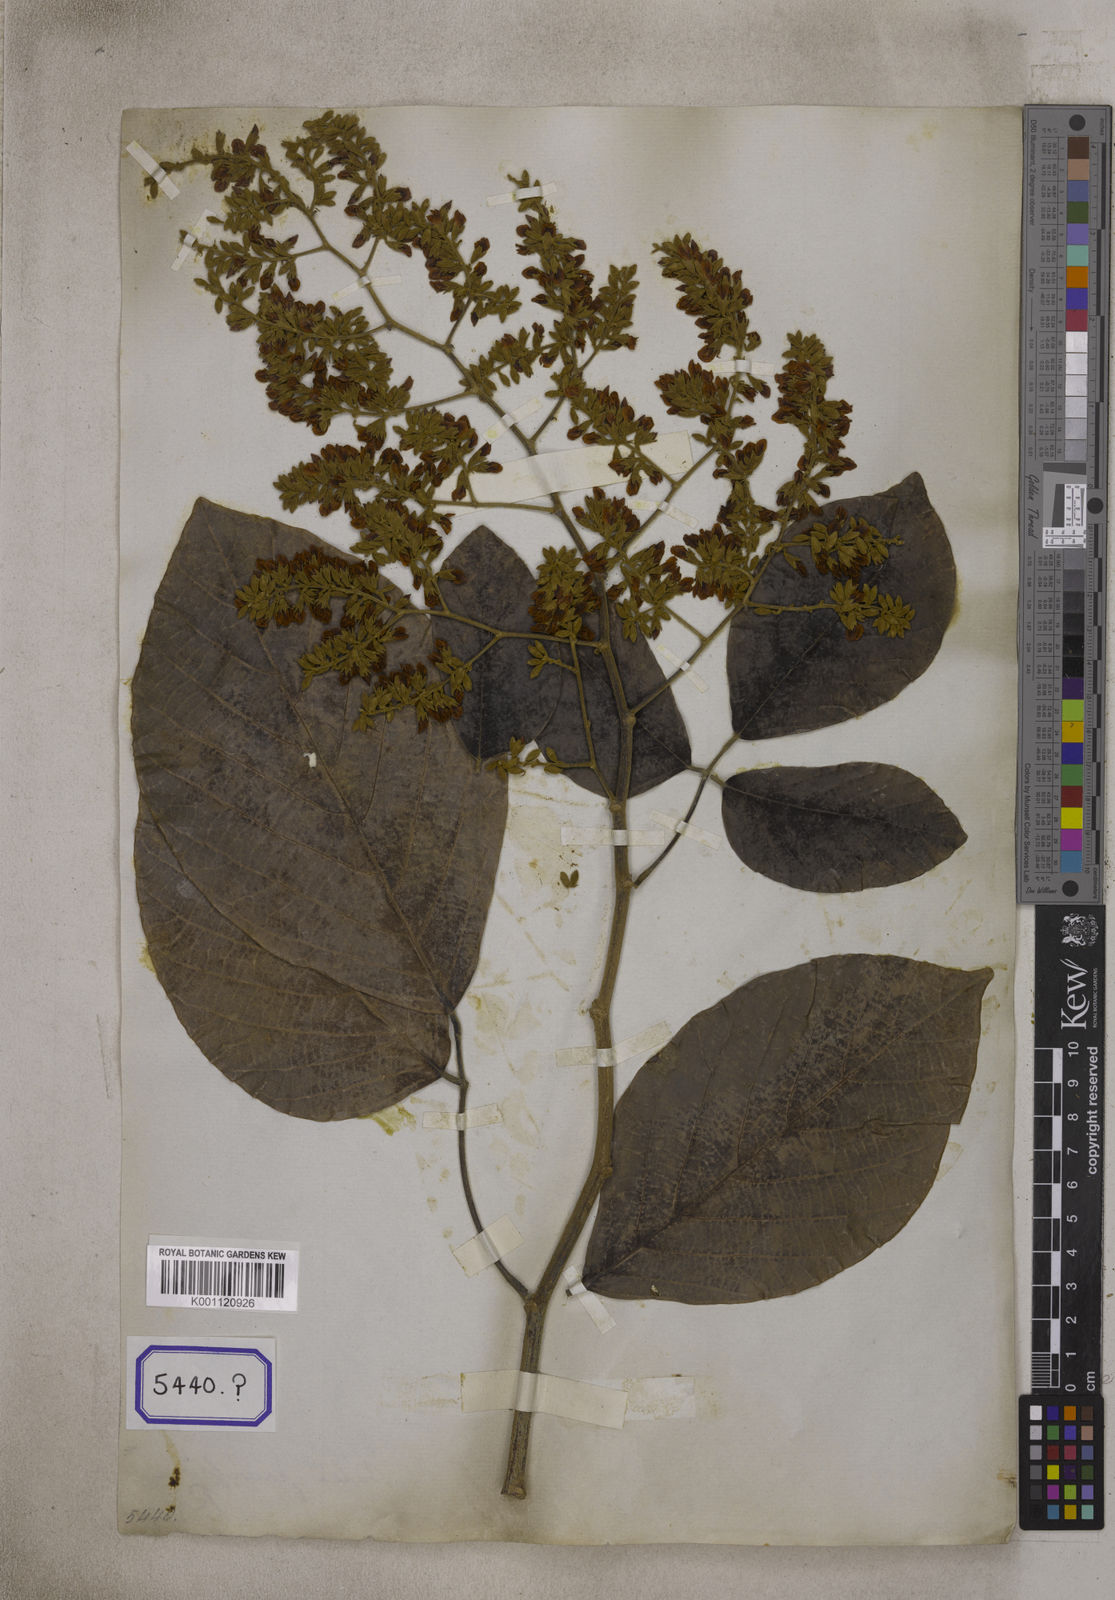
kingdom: Plantae
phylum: Tracheophyta
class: Magnoliopsida
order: Fabales
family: Fabaceae
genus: Butea
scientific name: Butea
